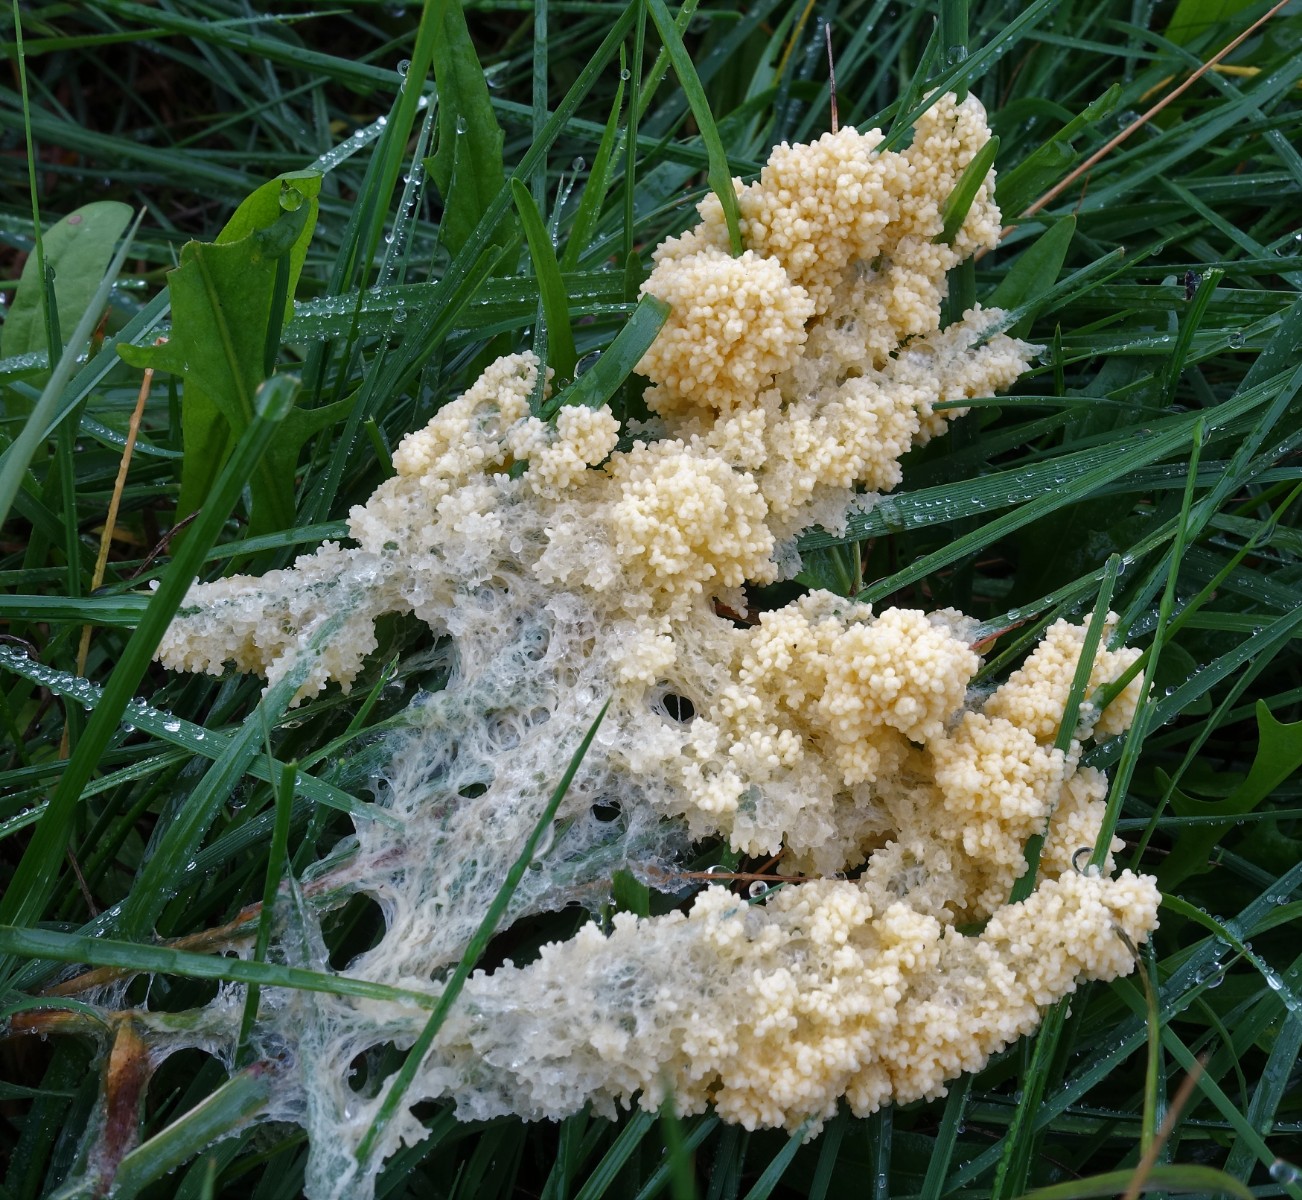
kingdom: Protozoa
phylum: Mycetozoa
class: Myxomycetes
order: Physarales
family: Physaraceae
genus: Didymium
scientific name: Didymium
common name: urteskum
